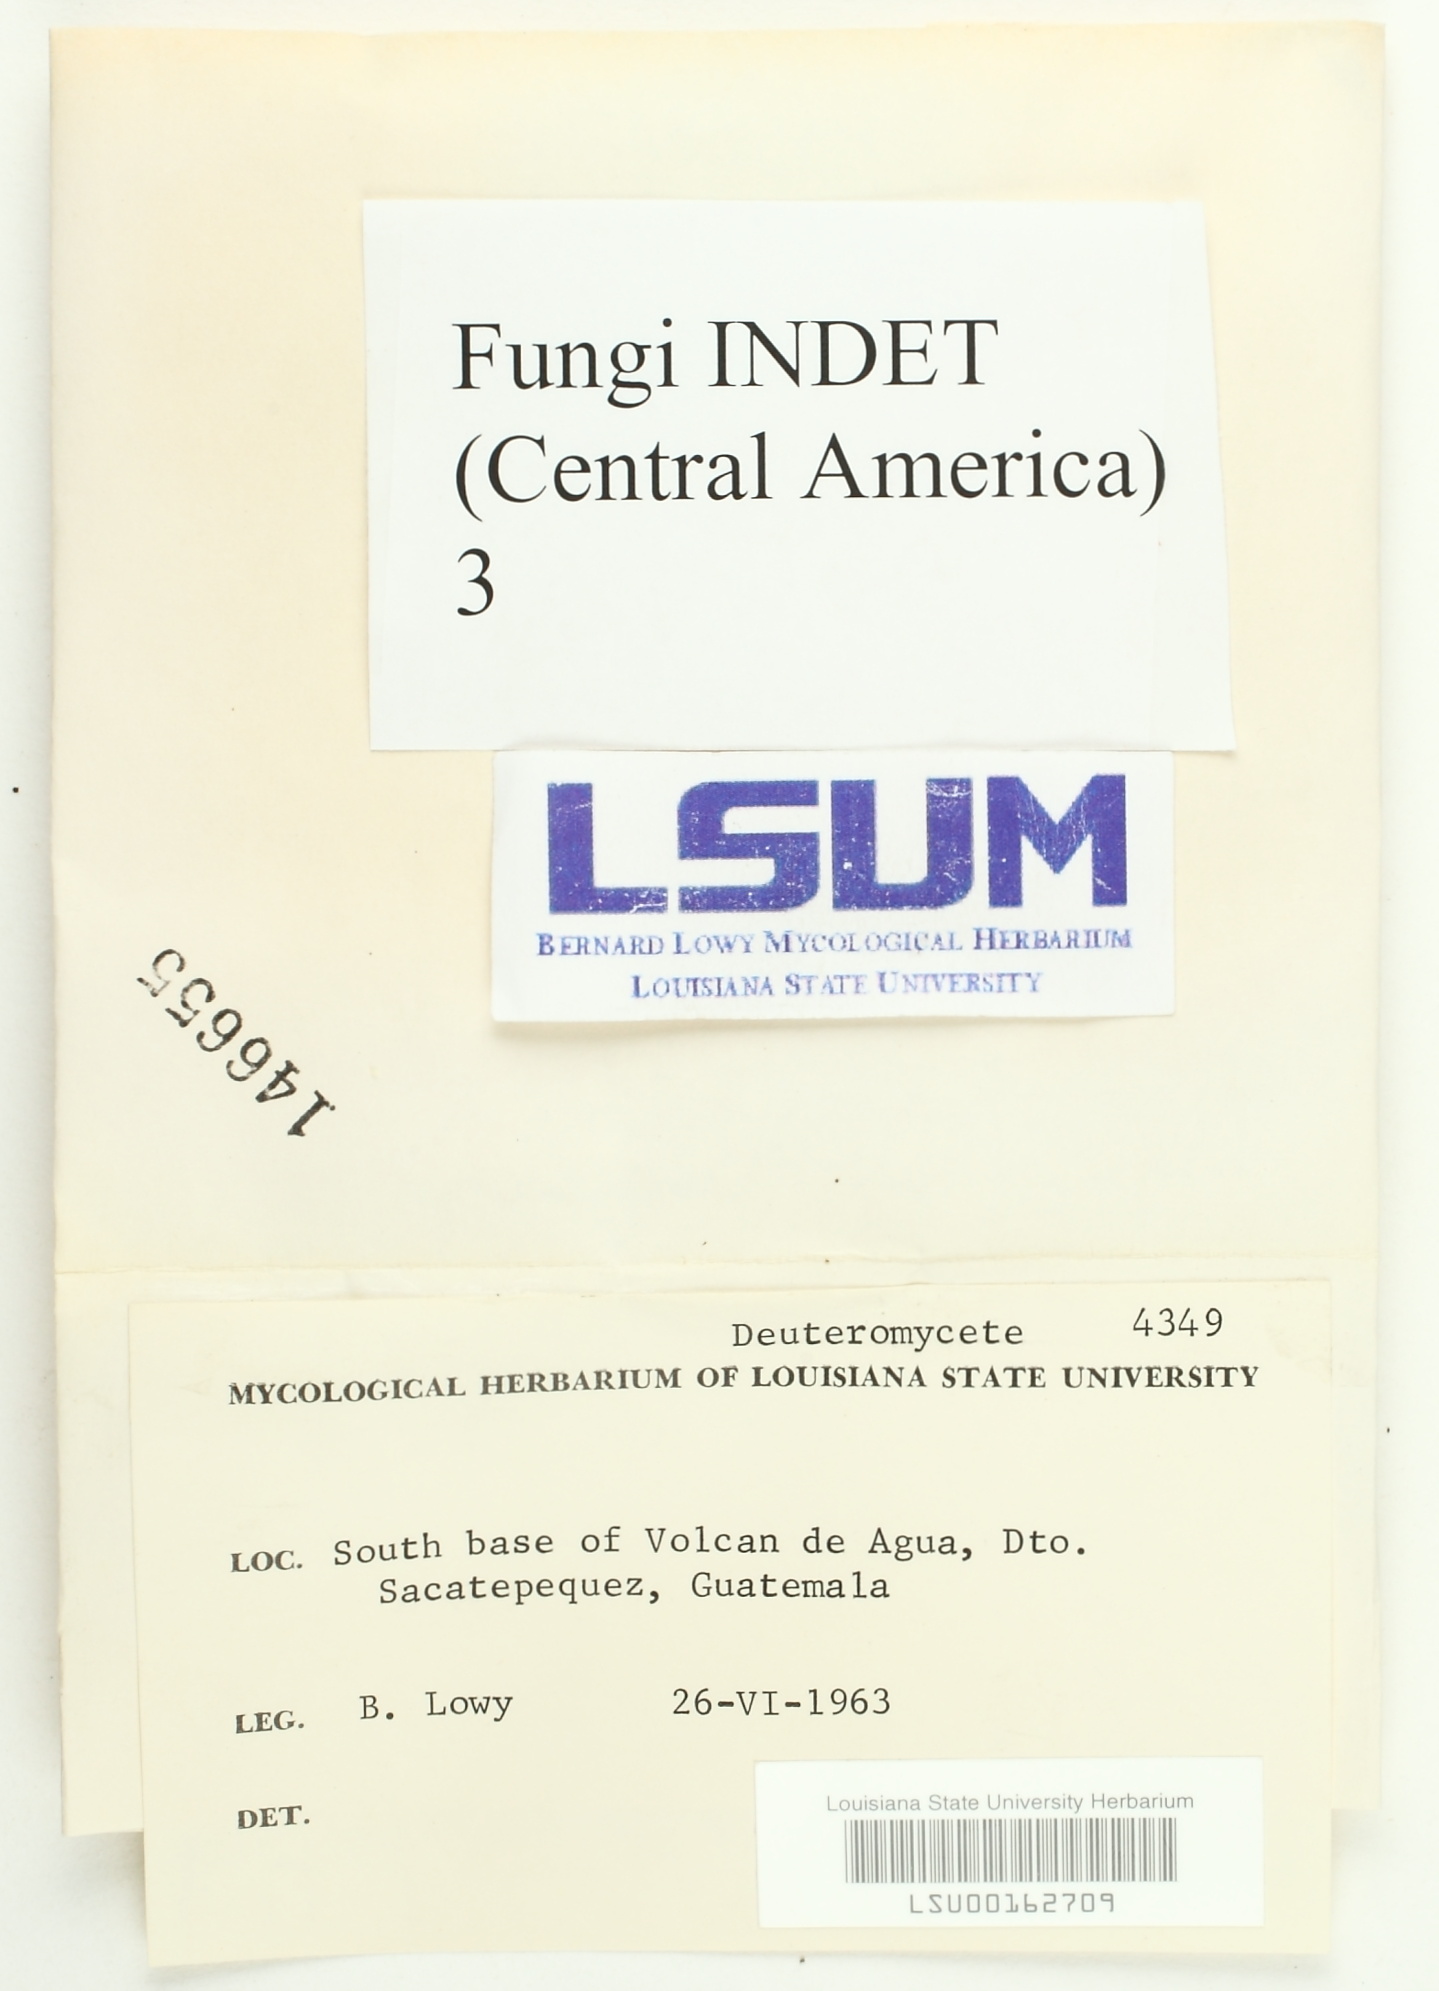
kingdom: Fungi
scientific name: Fungi
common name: Fungi
